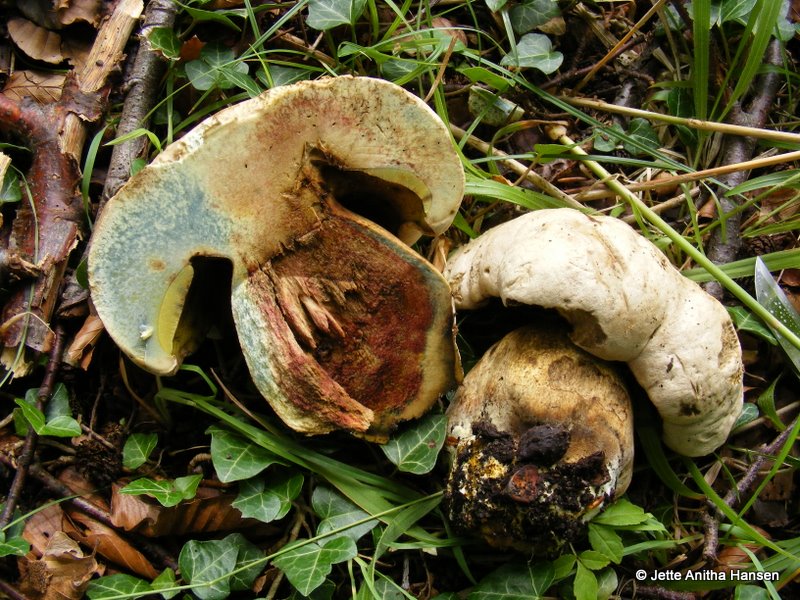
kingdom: Fungi
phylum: Basidiomycota
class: Agaricomycetes
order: Boletales
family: Boletaceae
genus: Caloboletus
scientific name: Caloboletus radicans
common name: rod-rørhat
